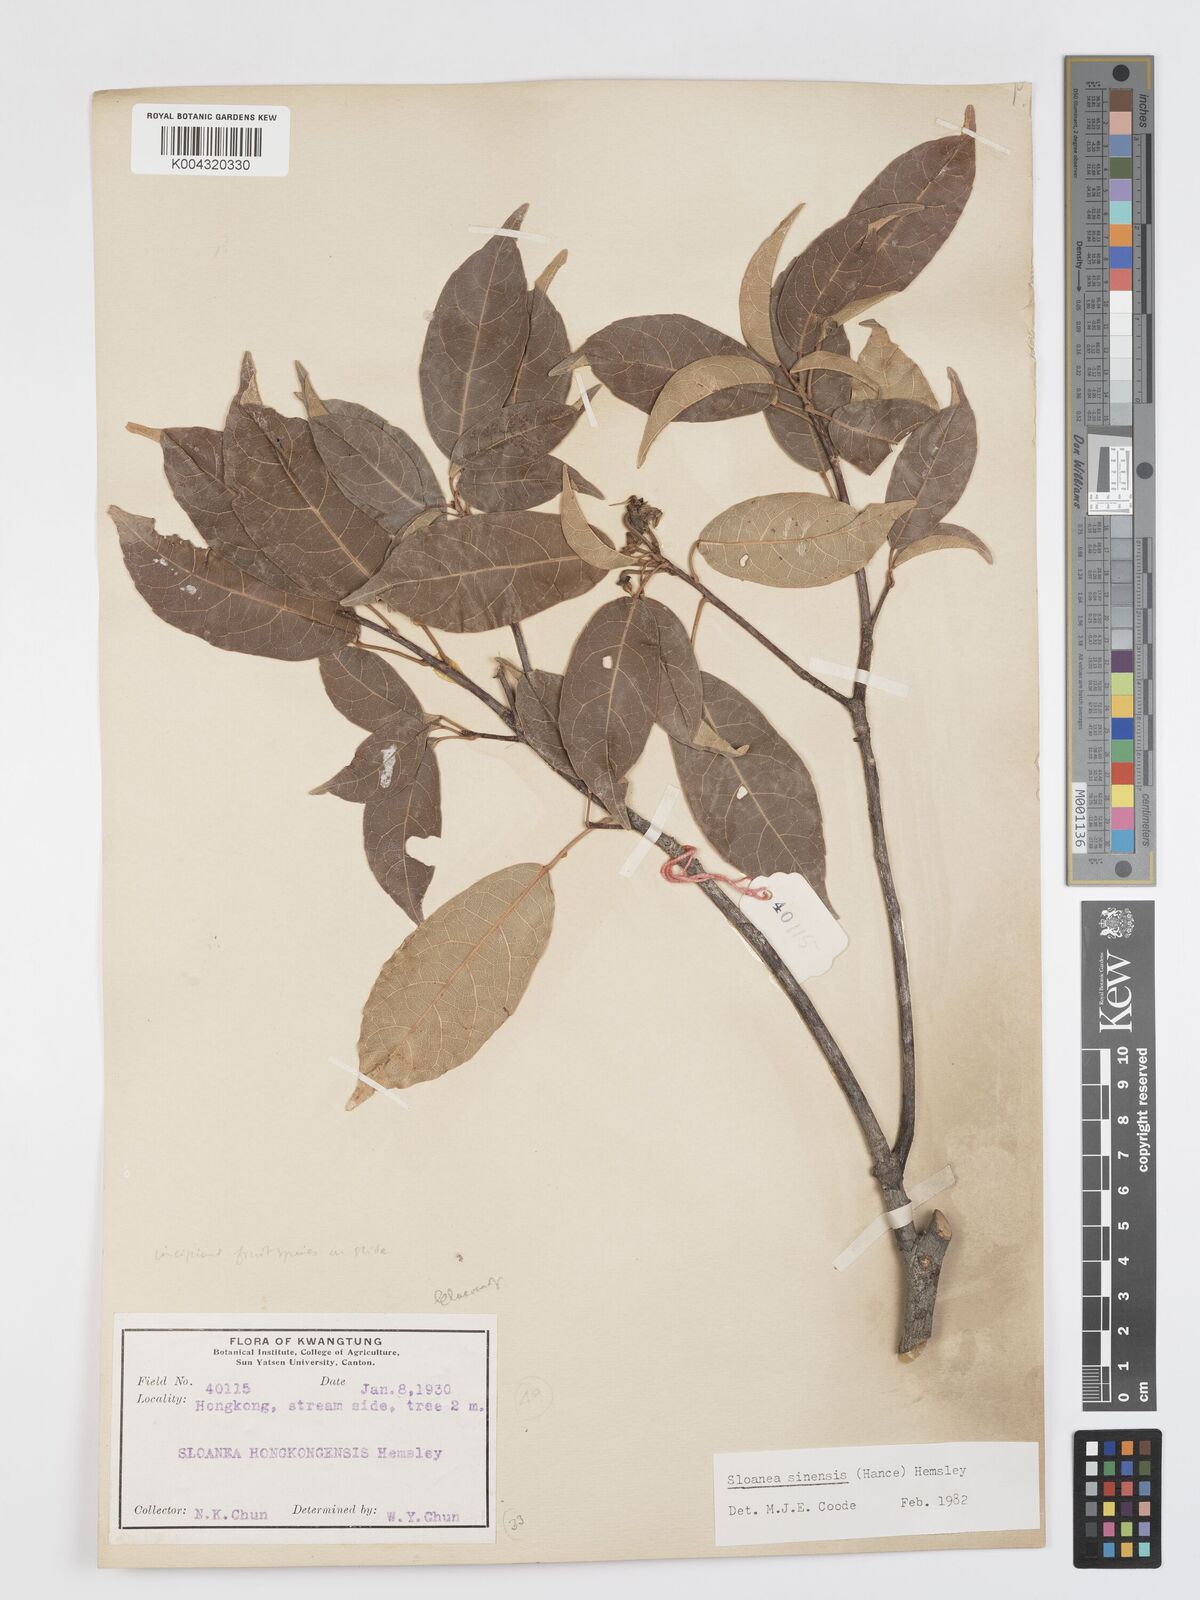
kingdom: Plantae
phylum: Tracheophyta
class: Magnoliopsida
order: Oxalidales
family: Elaeocarpaceae
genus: Sloanea
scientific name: Sloanea sinensis
